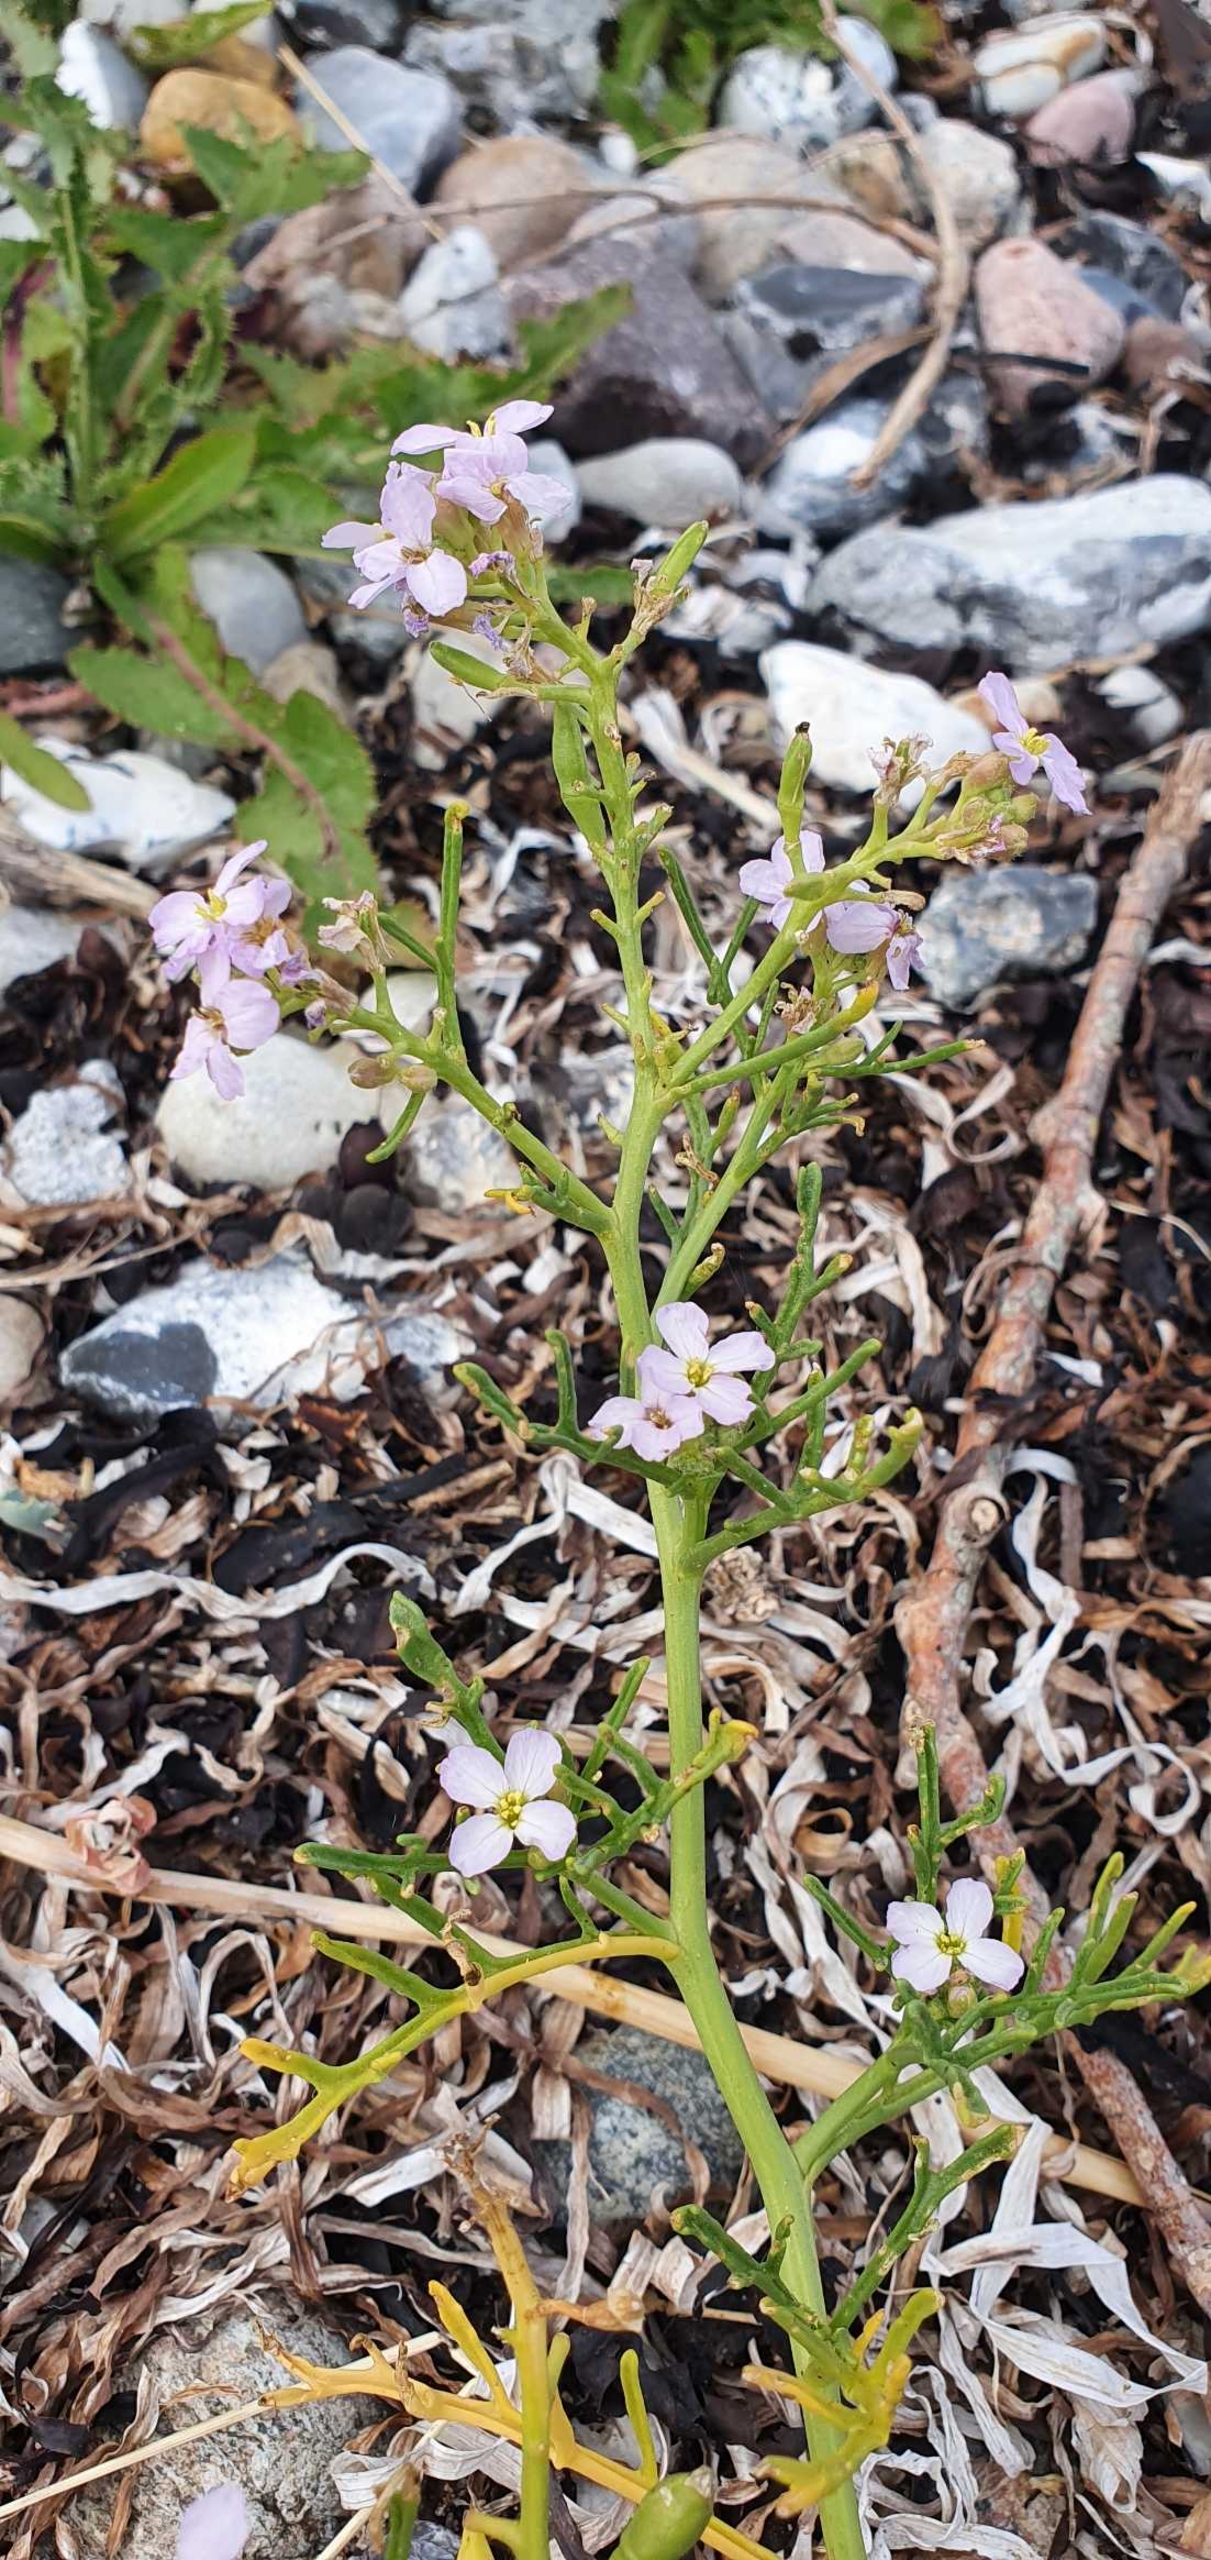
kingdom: Plantae
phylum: Tracheophyta
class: Magnoliopsida
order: Brassicales
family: Brassicaceae
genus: Cakile
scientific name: Cakile maritima
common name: Strandsennep
